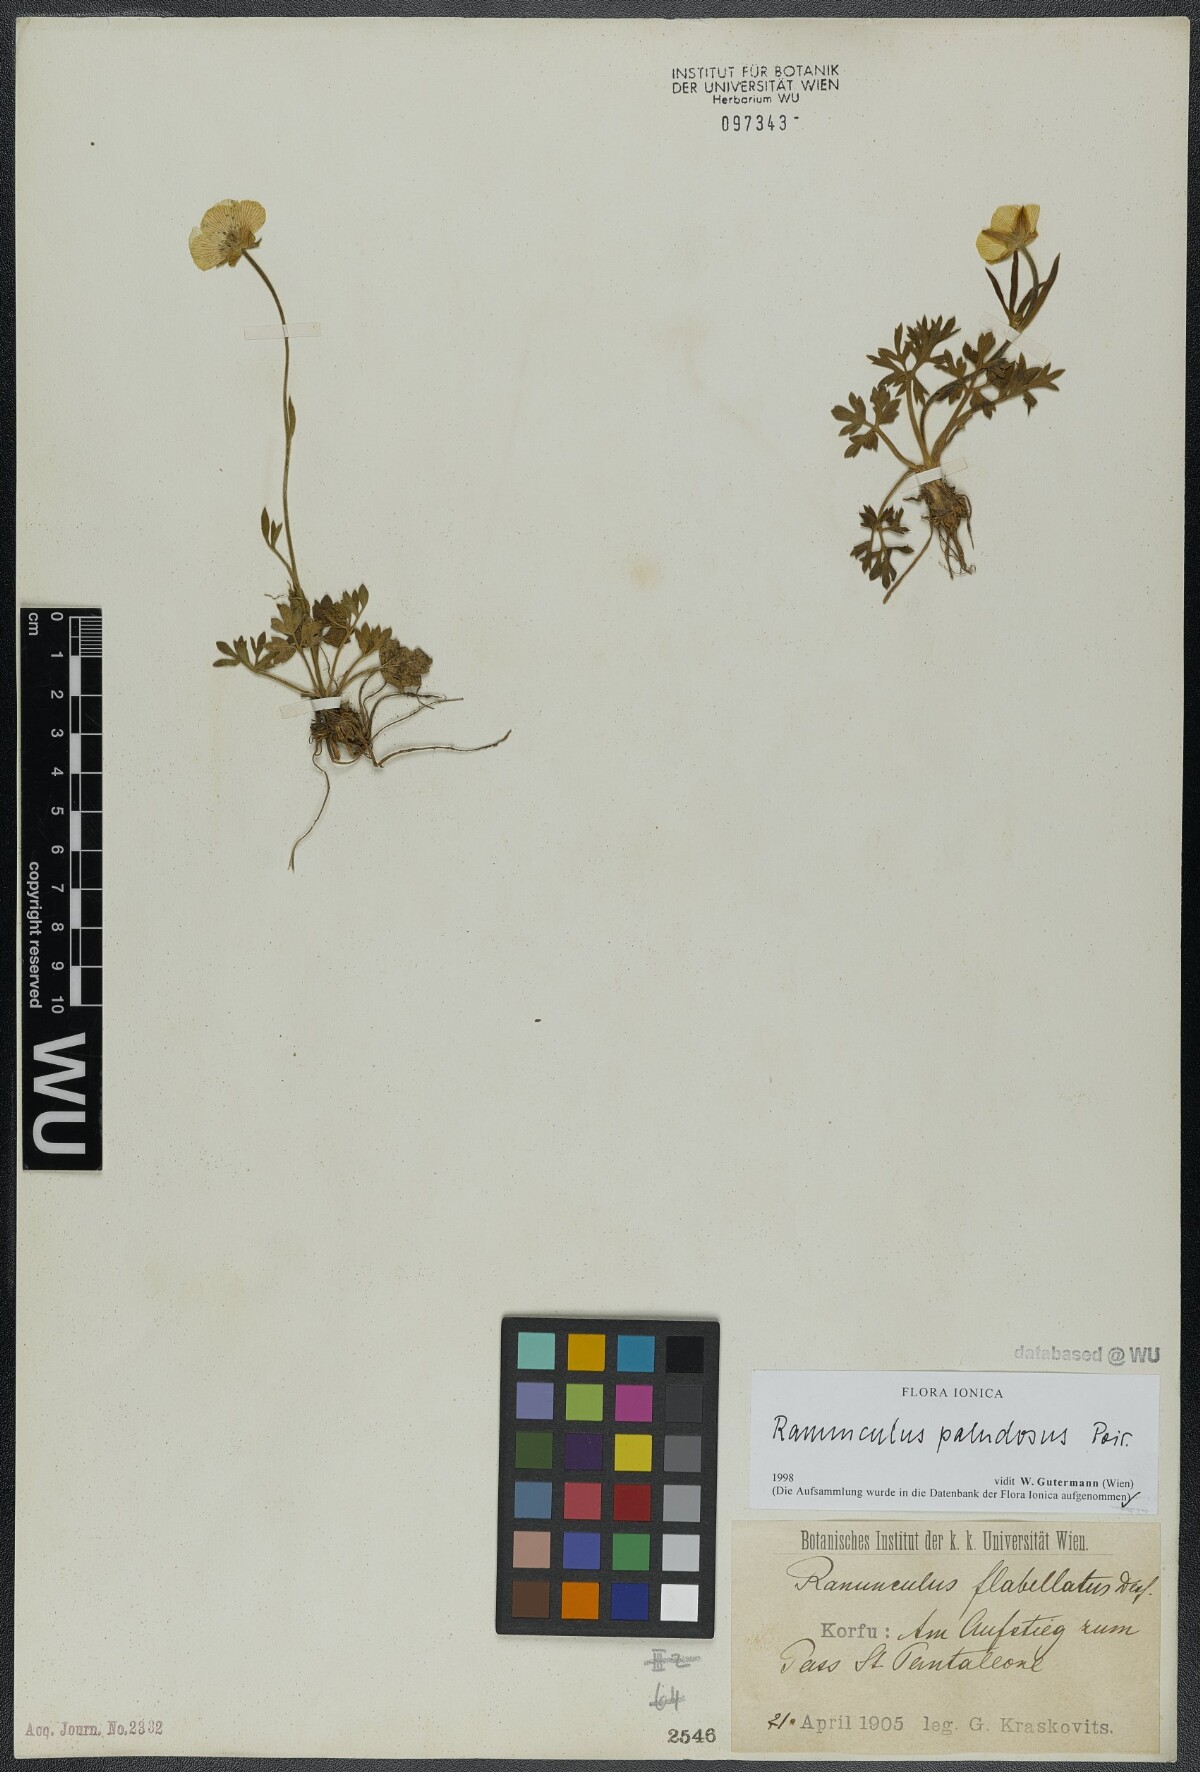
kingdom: Plantae
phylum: Tracheophyta
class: Magnoliopsida
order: Ranunculales
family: Ranunculaceae
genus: Ranunculus
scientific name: Ranunculus paludosus
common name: Jersey buttercup
